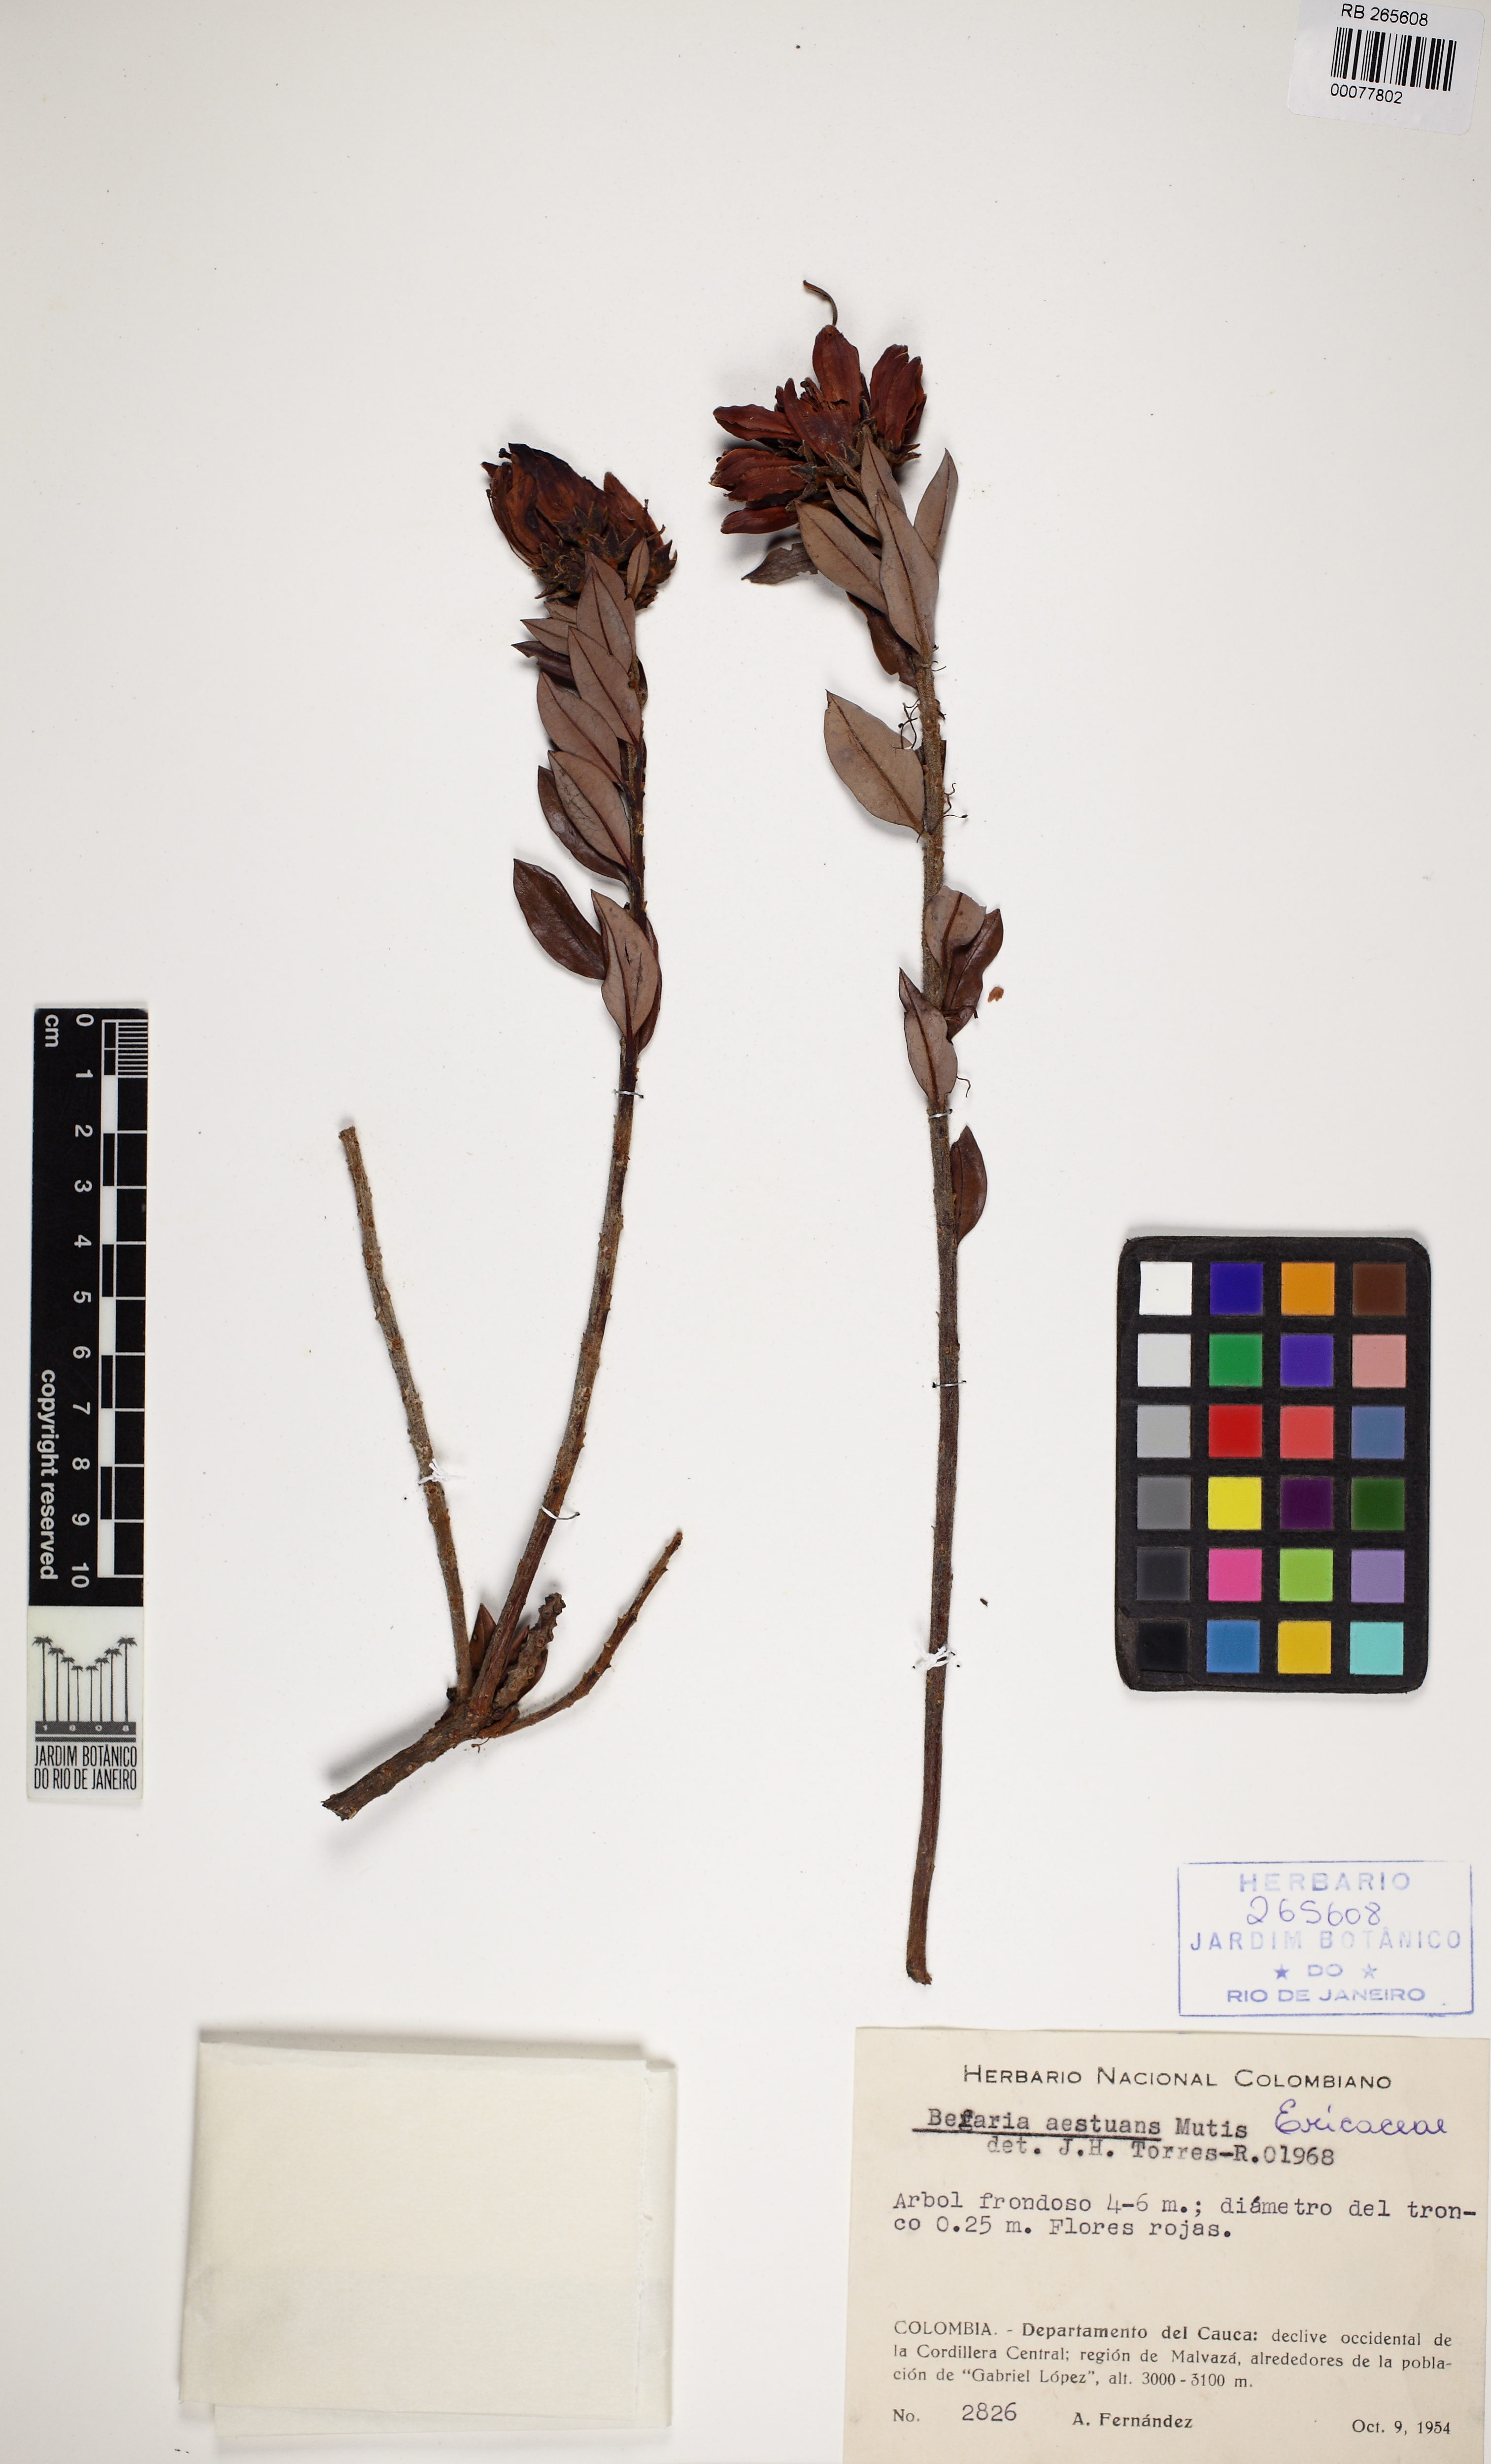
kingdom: Plantae
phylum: Tracheophyta
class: Magnoliopsida
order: Ericales
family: Ericaceae
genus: Bejaria
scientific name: Bejaria aestuans
